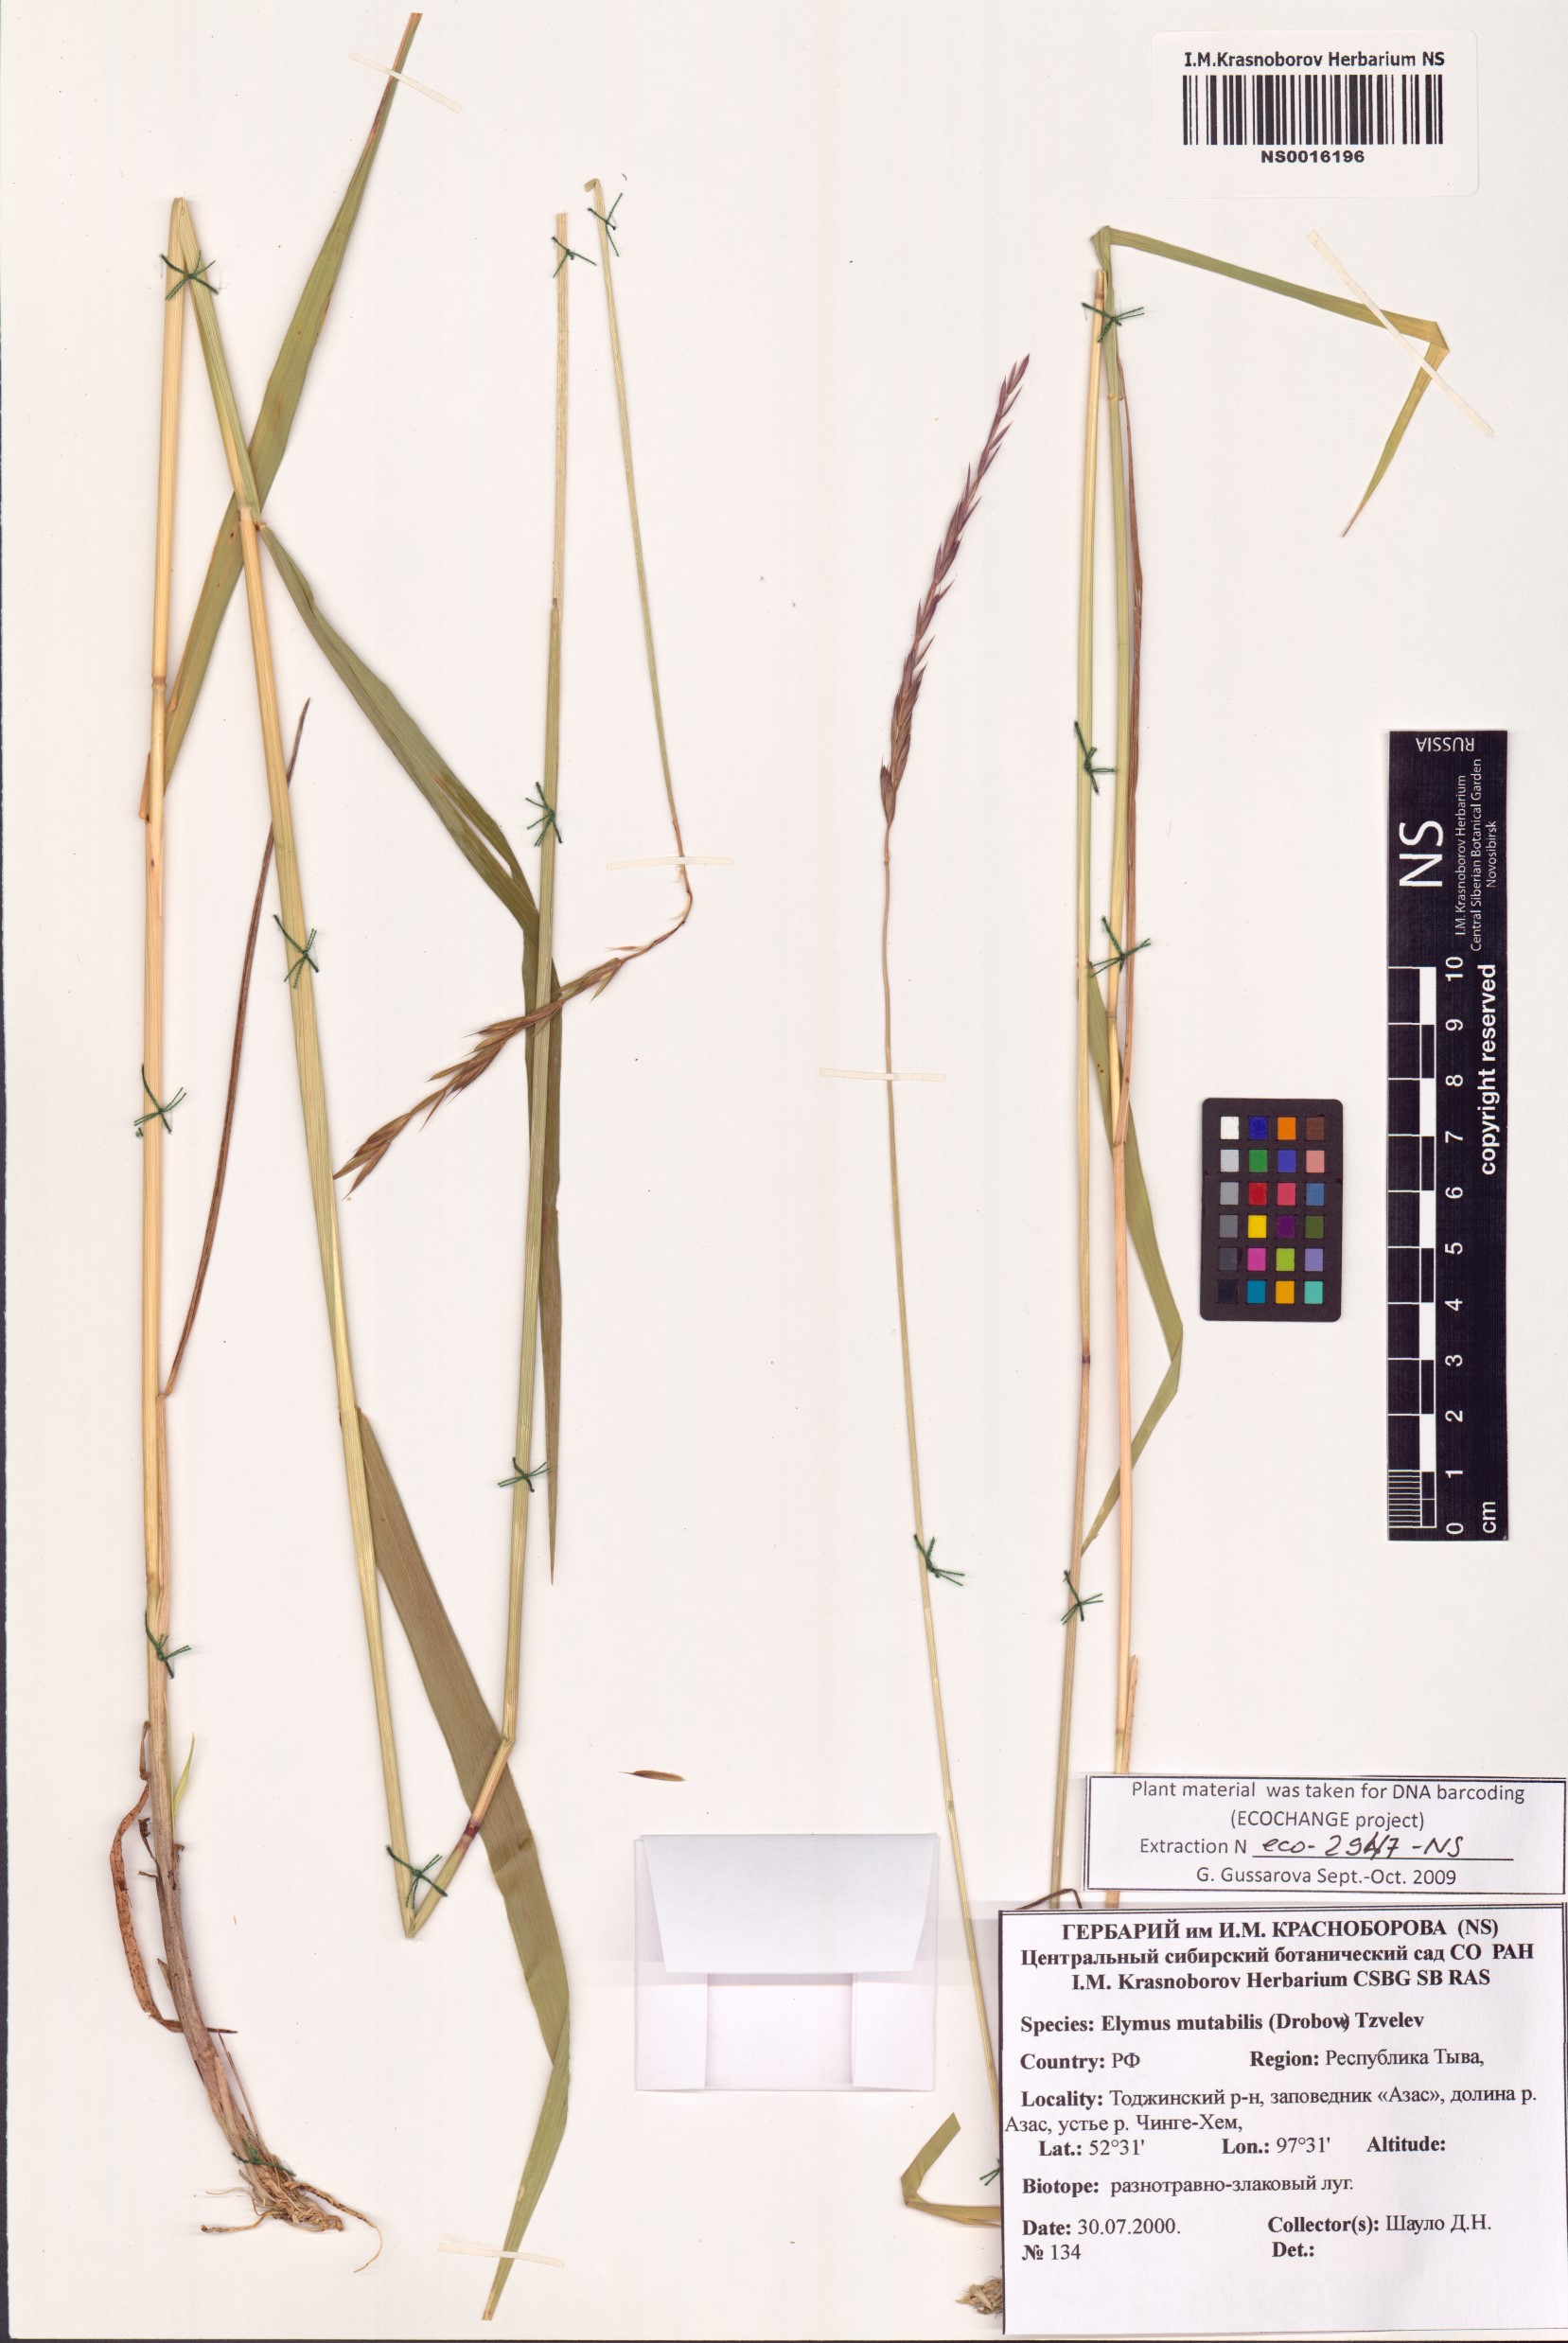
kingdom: Plantae
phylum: Tracheophyta
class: Liliopsida
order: Poales
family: Poaceae
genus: Elymus
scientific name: Elymus mutabilis
